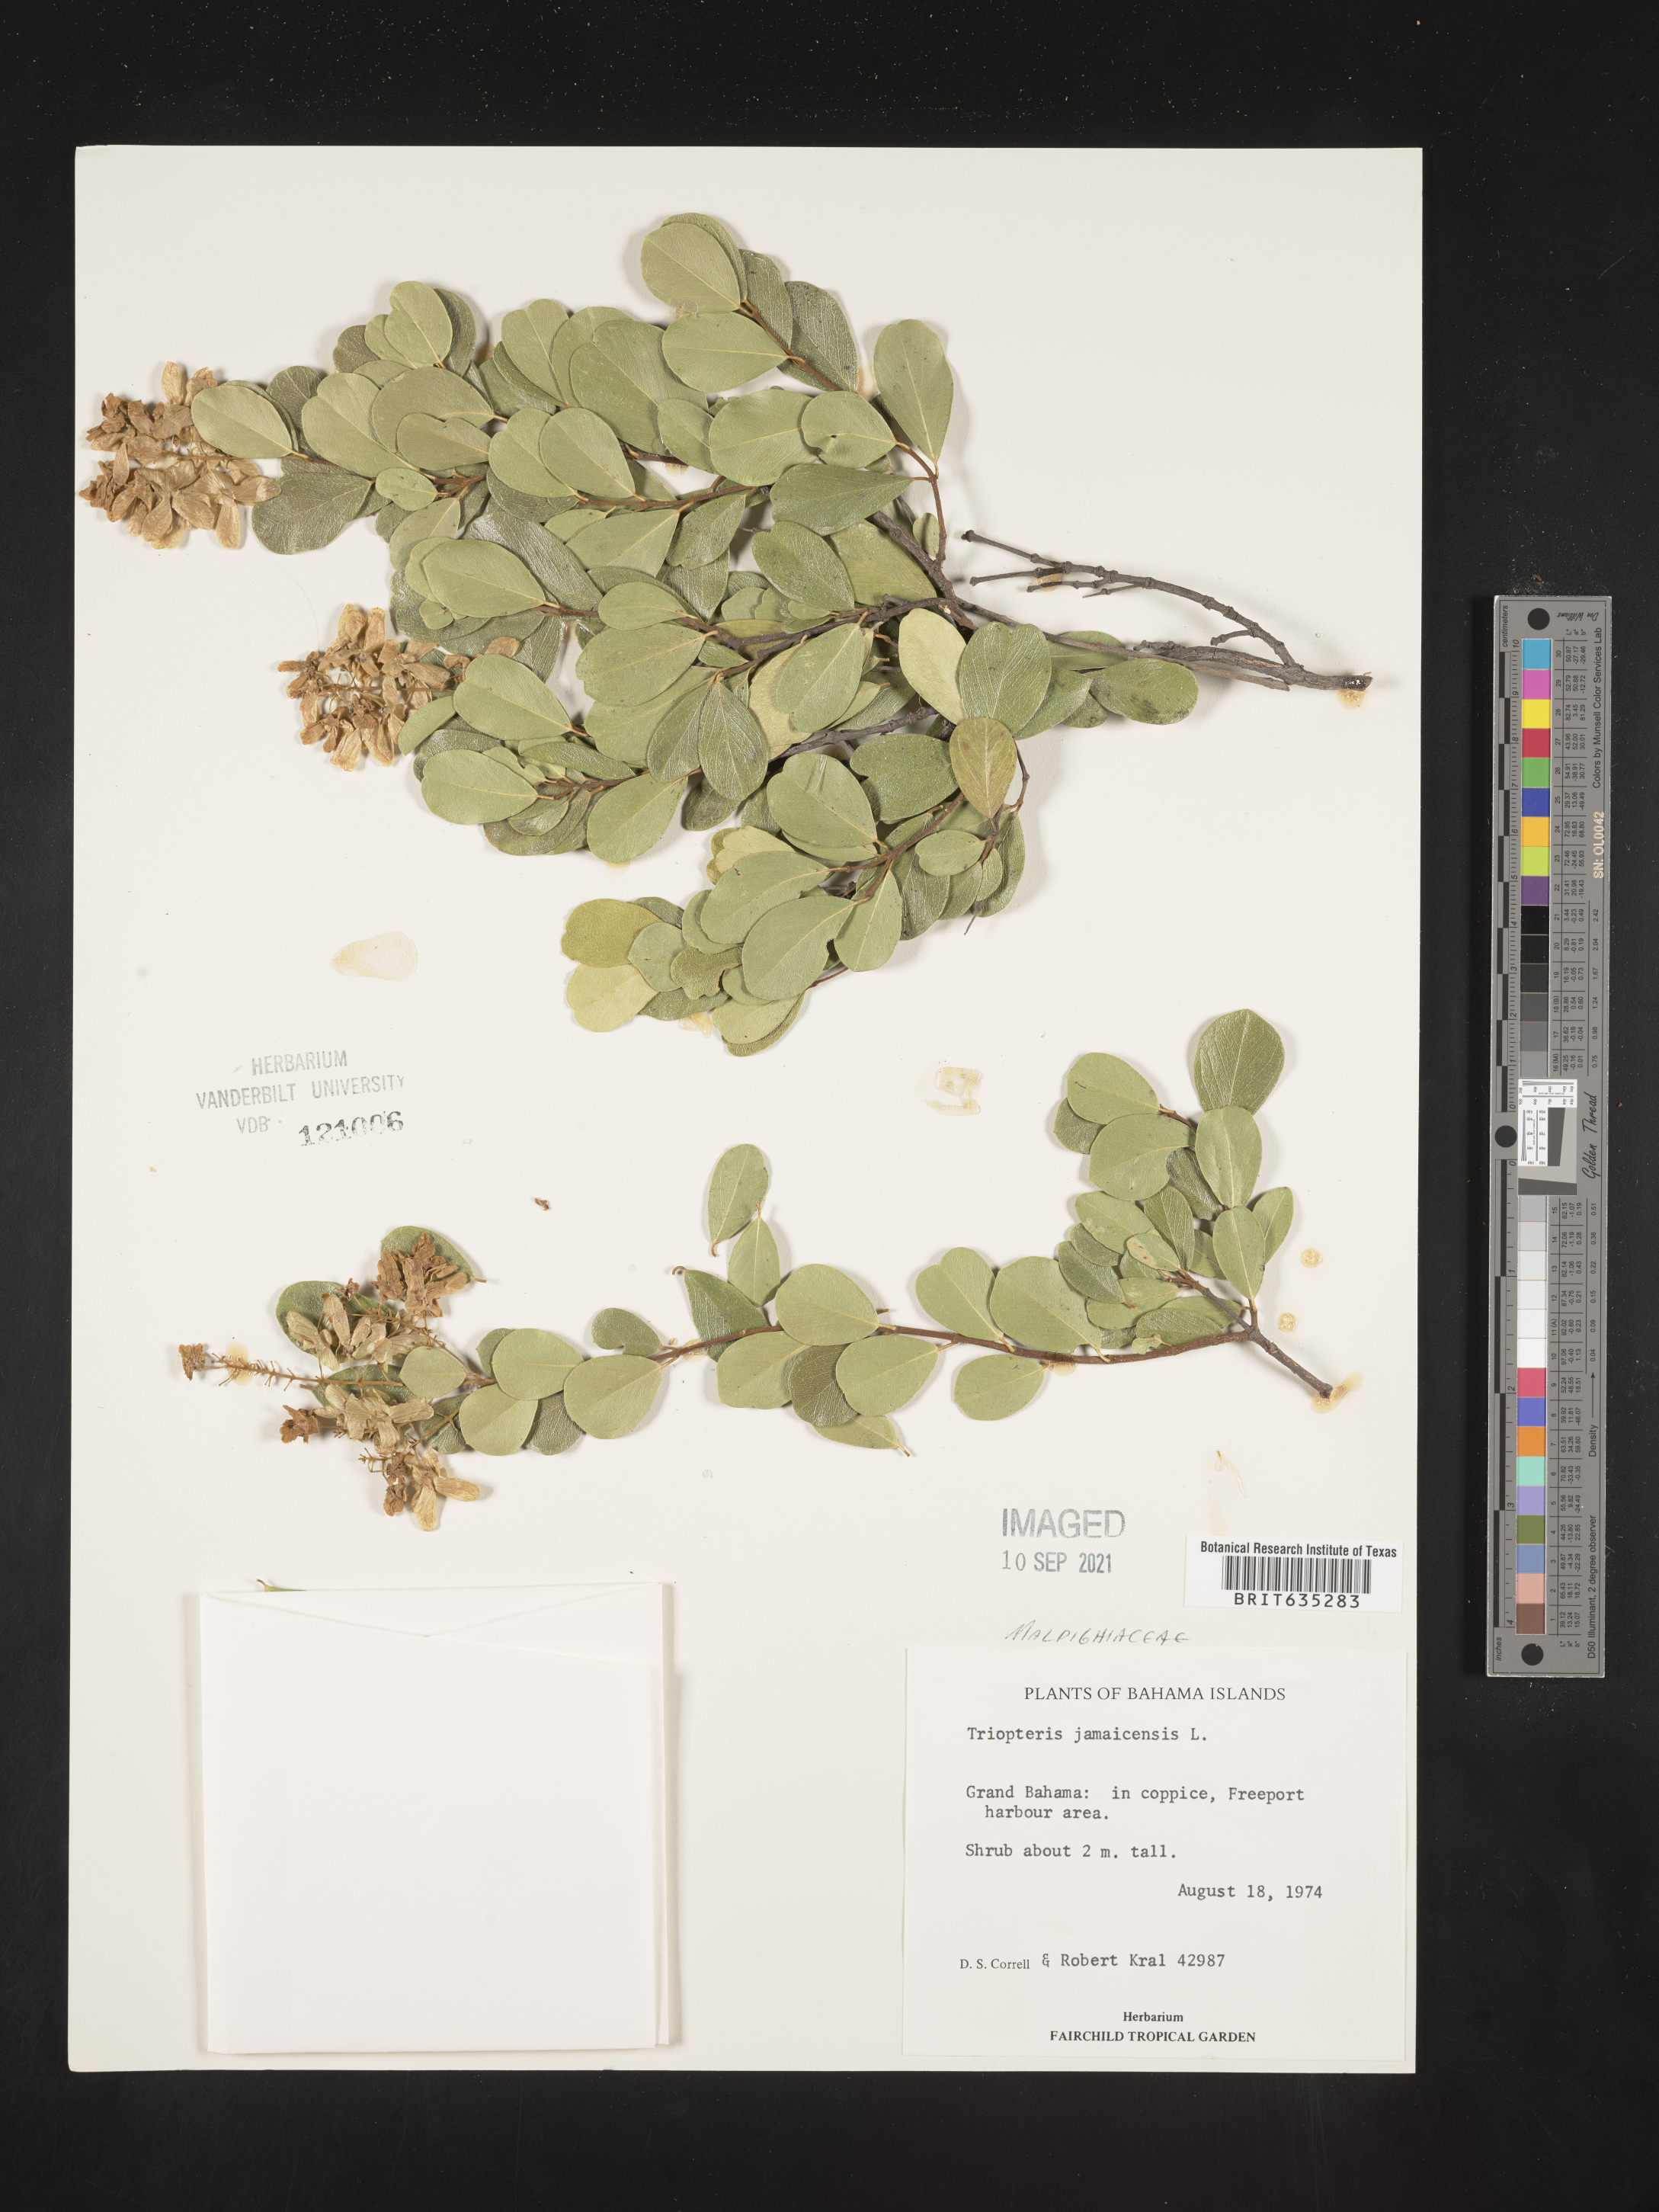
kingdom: Plantae
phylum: Tracheophyta
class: Magnoliopsida
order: Malpighiales
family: Malpighiaceae
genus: Triopterys
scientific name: Triopterys
